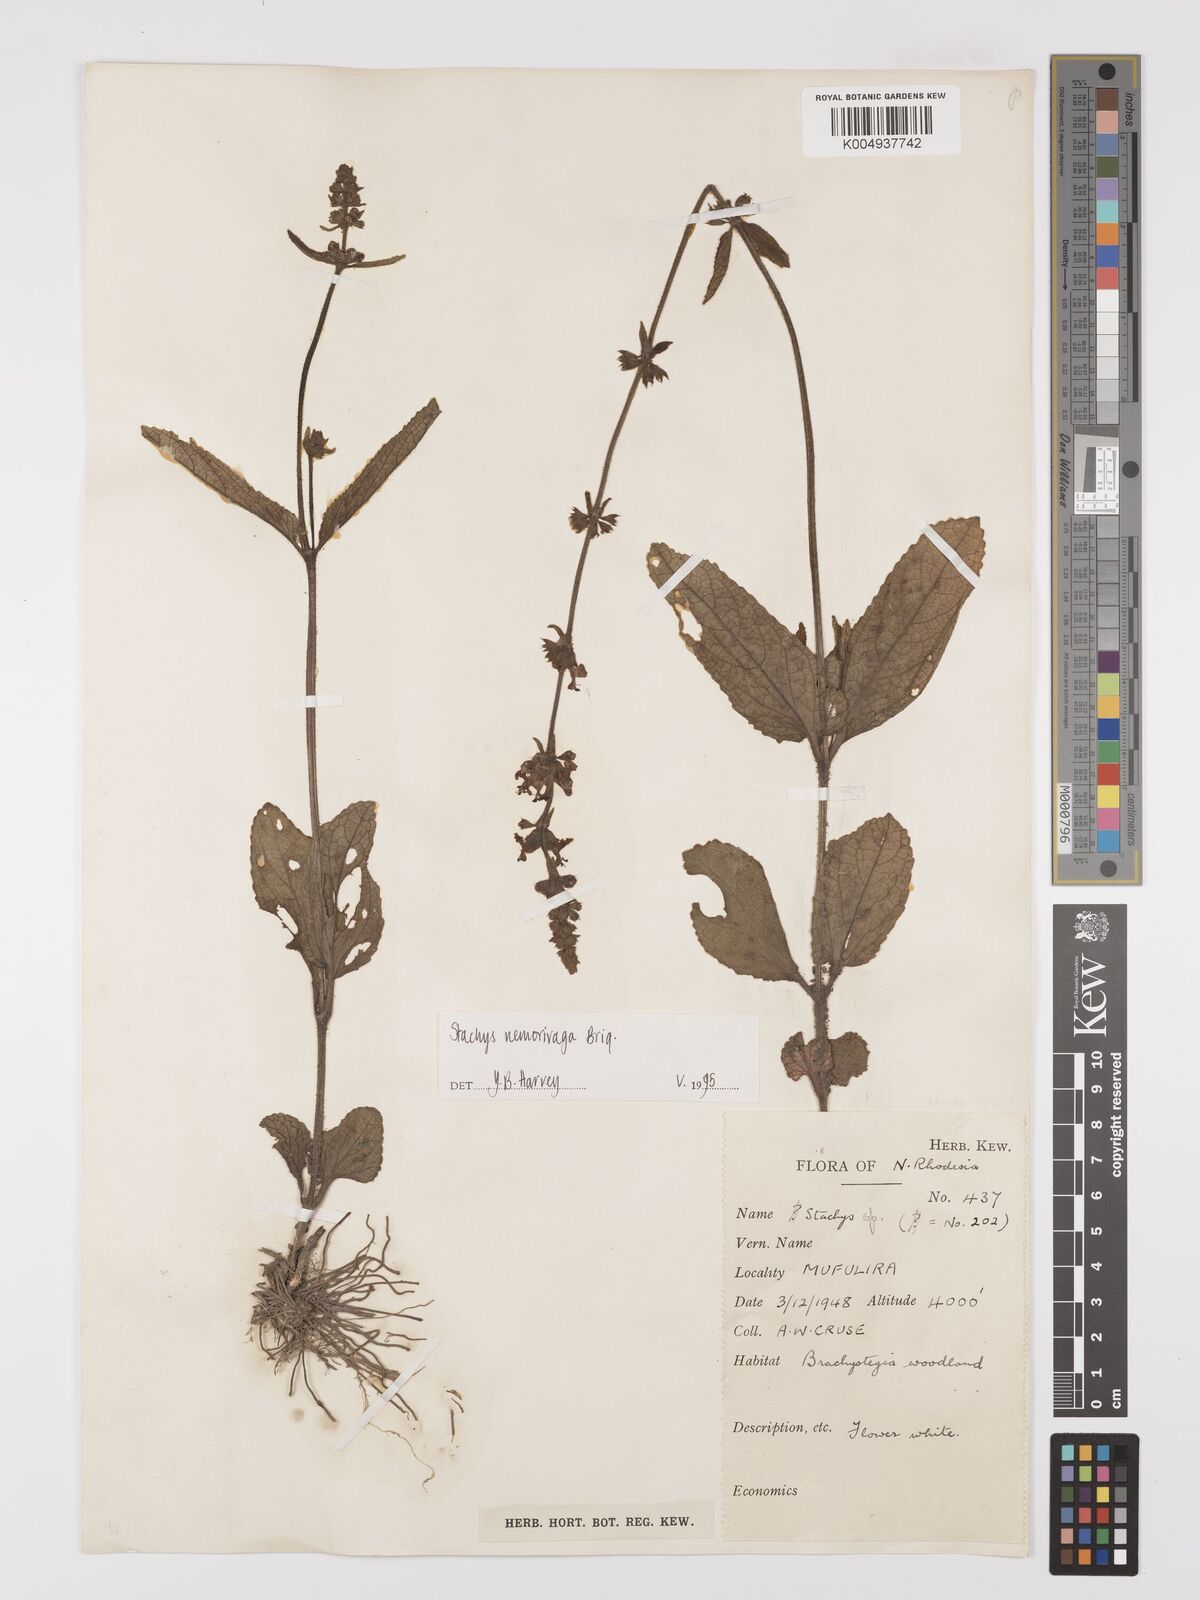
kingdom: Plantae
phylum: Tracheophyta
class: Magnoliopsida
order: Lamiales
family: Lamiaceae
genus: Stachys
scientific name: Stachys nemorivaga
